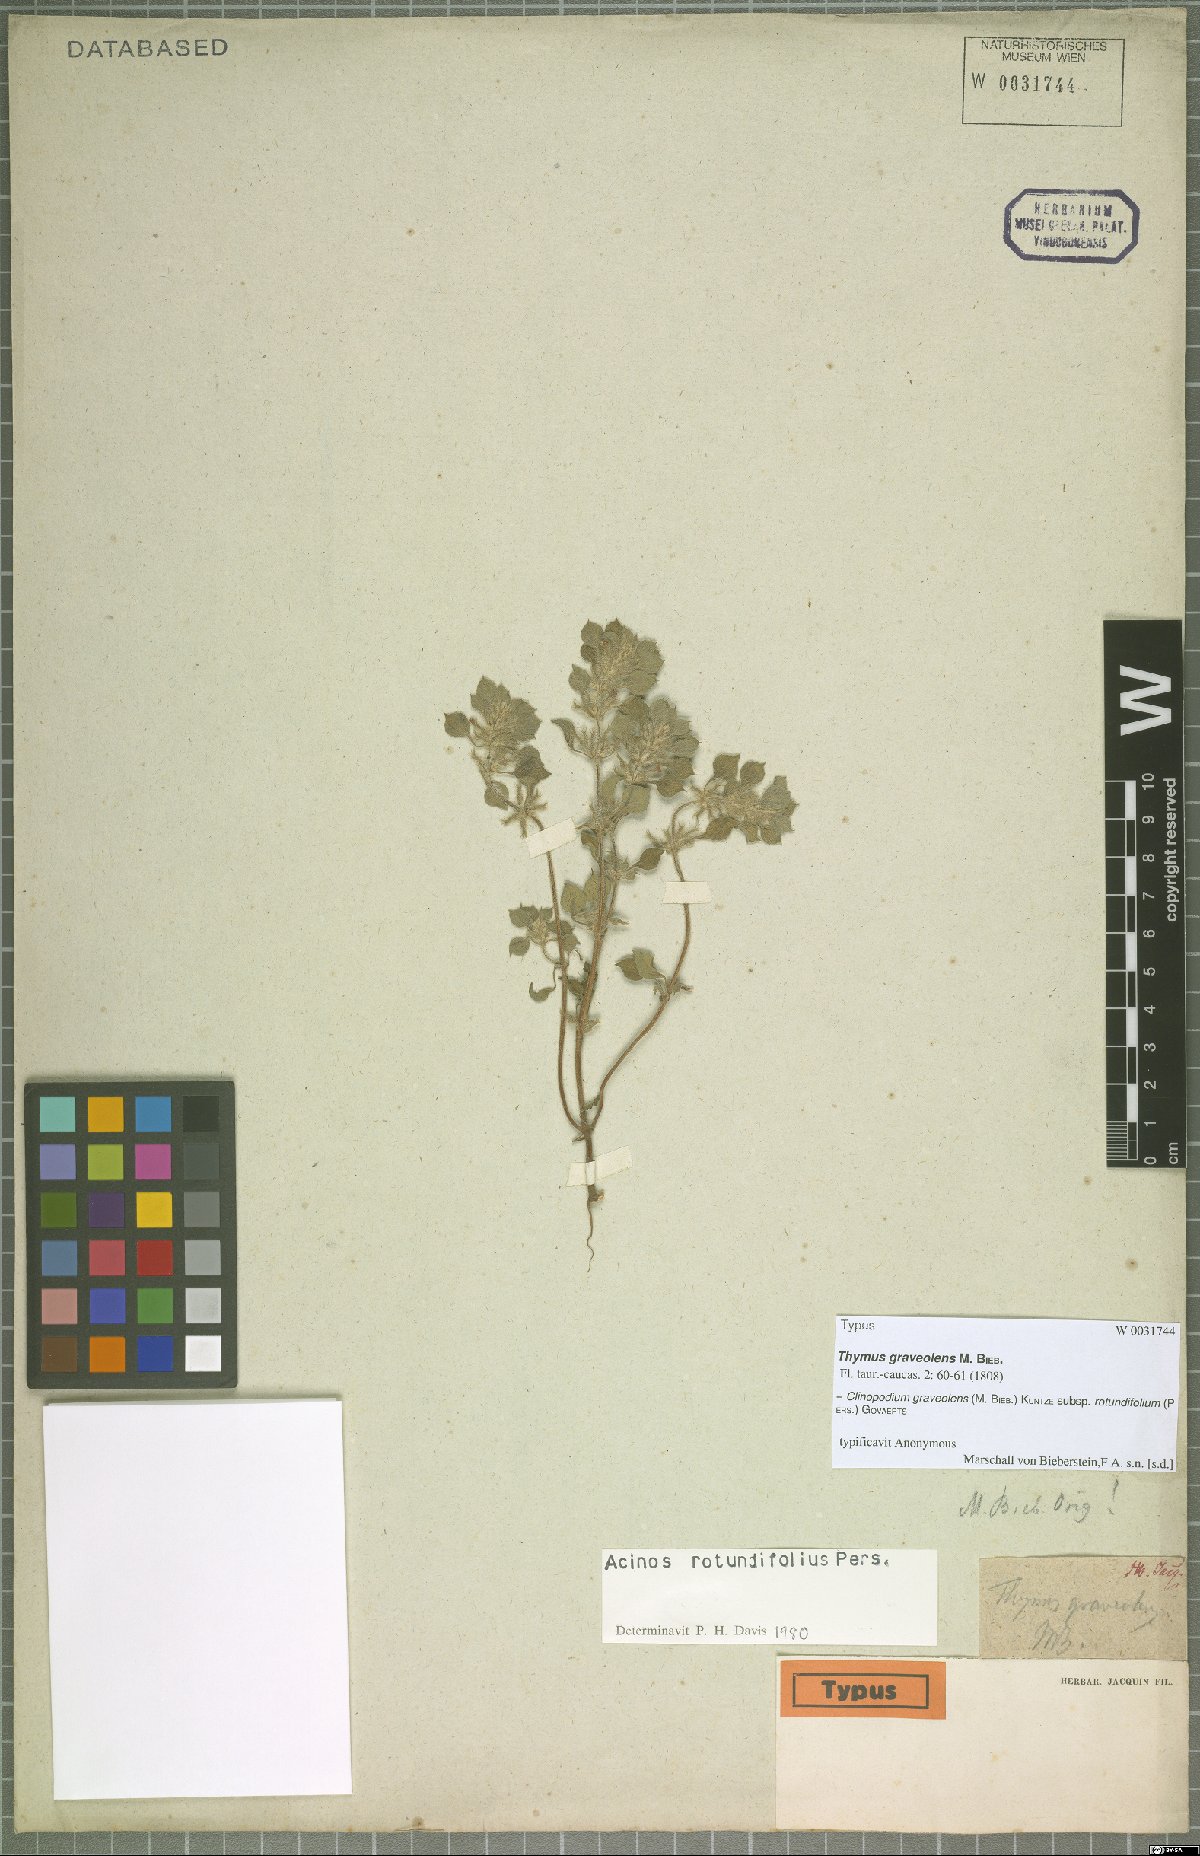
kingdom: Plantae
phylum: Tracheophyta
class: Magnoliopsida
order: Lamiales
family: Lamiaceae
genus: Clinopodium
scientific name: Clinopodium graveolens
